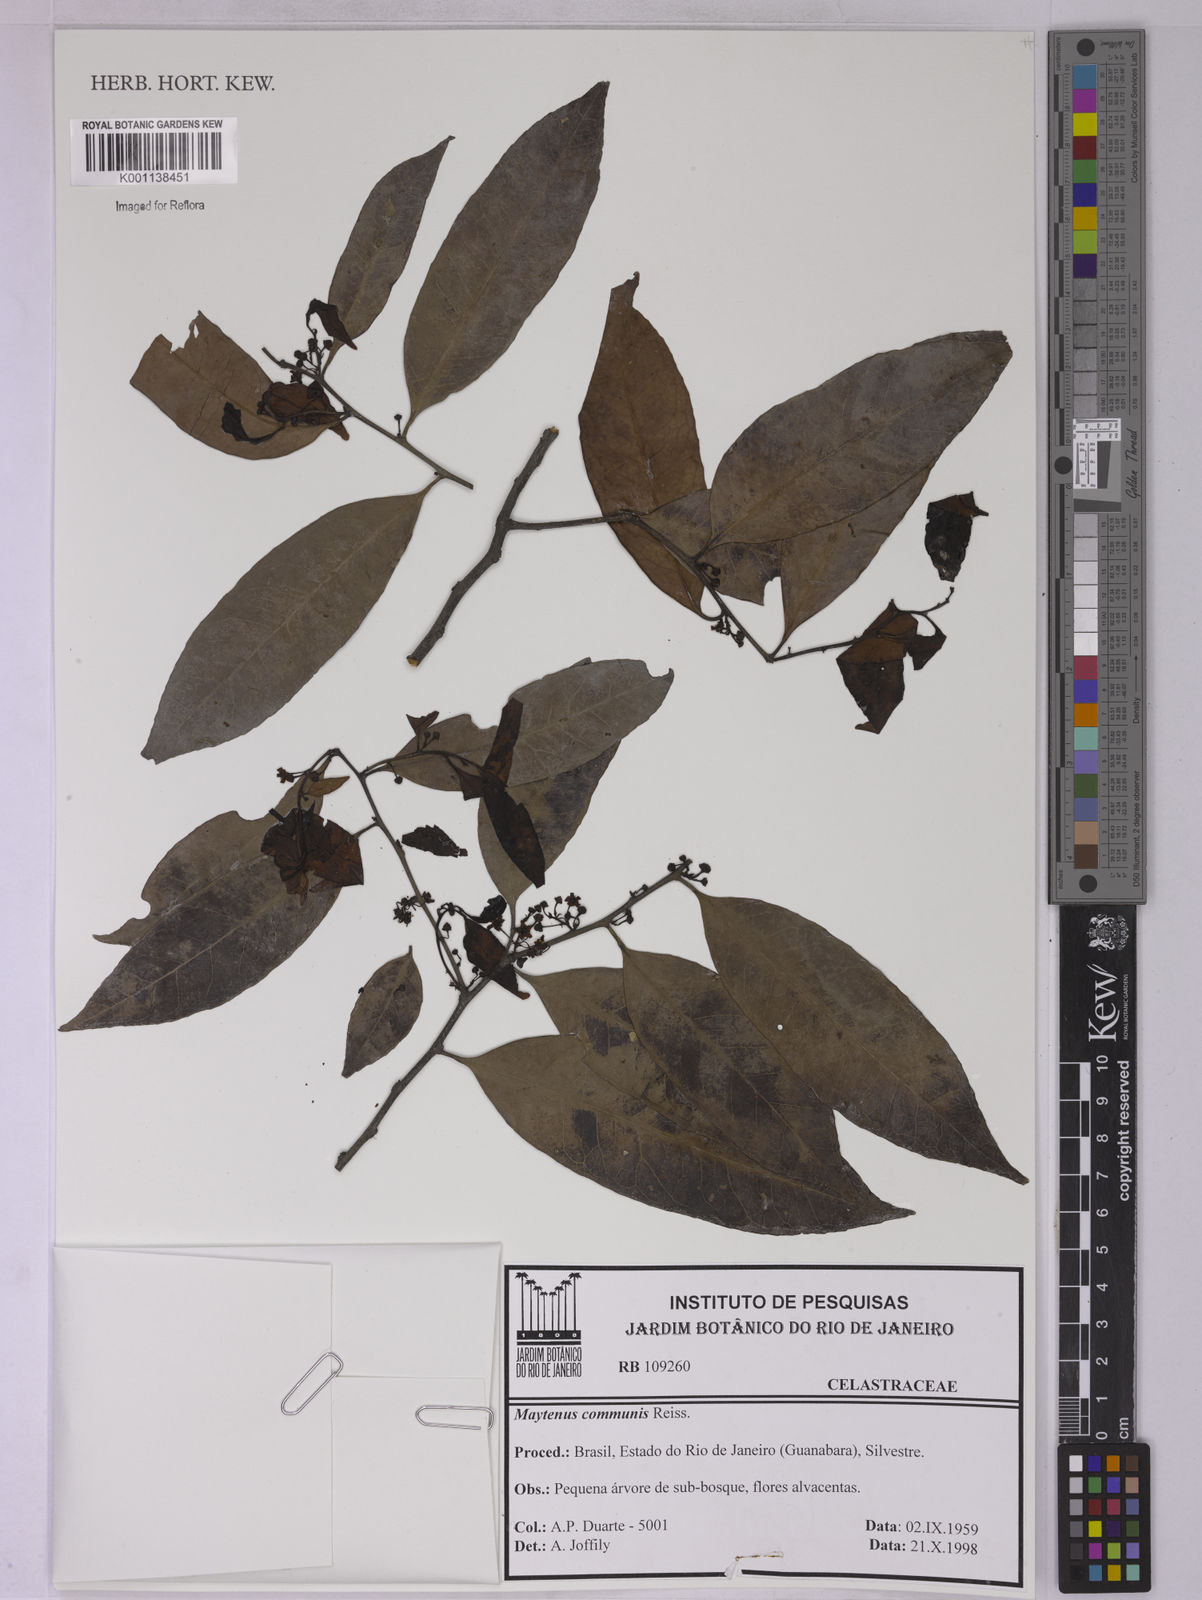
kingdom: Plantae
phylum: Tracheophyta
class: Magnoliopsida
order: Celastrales
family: Celastraceae
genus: Monteverdia
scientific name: Monteverdia communis
